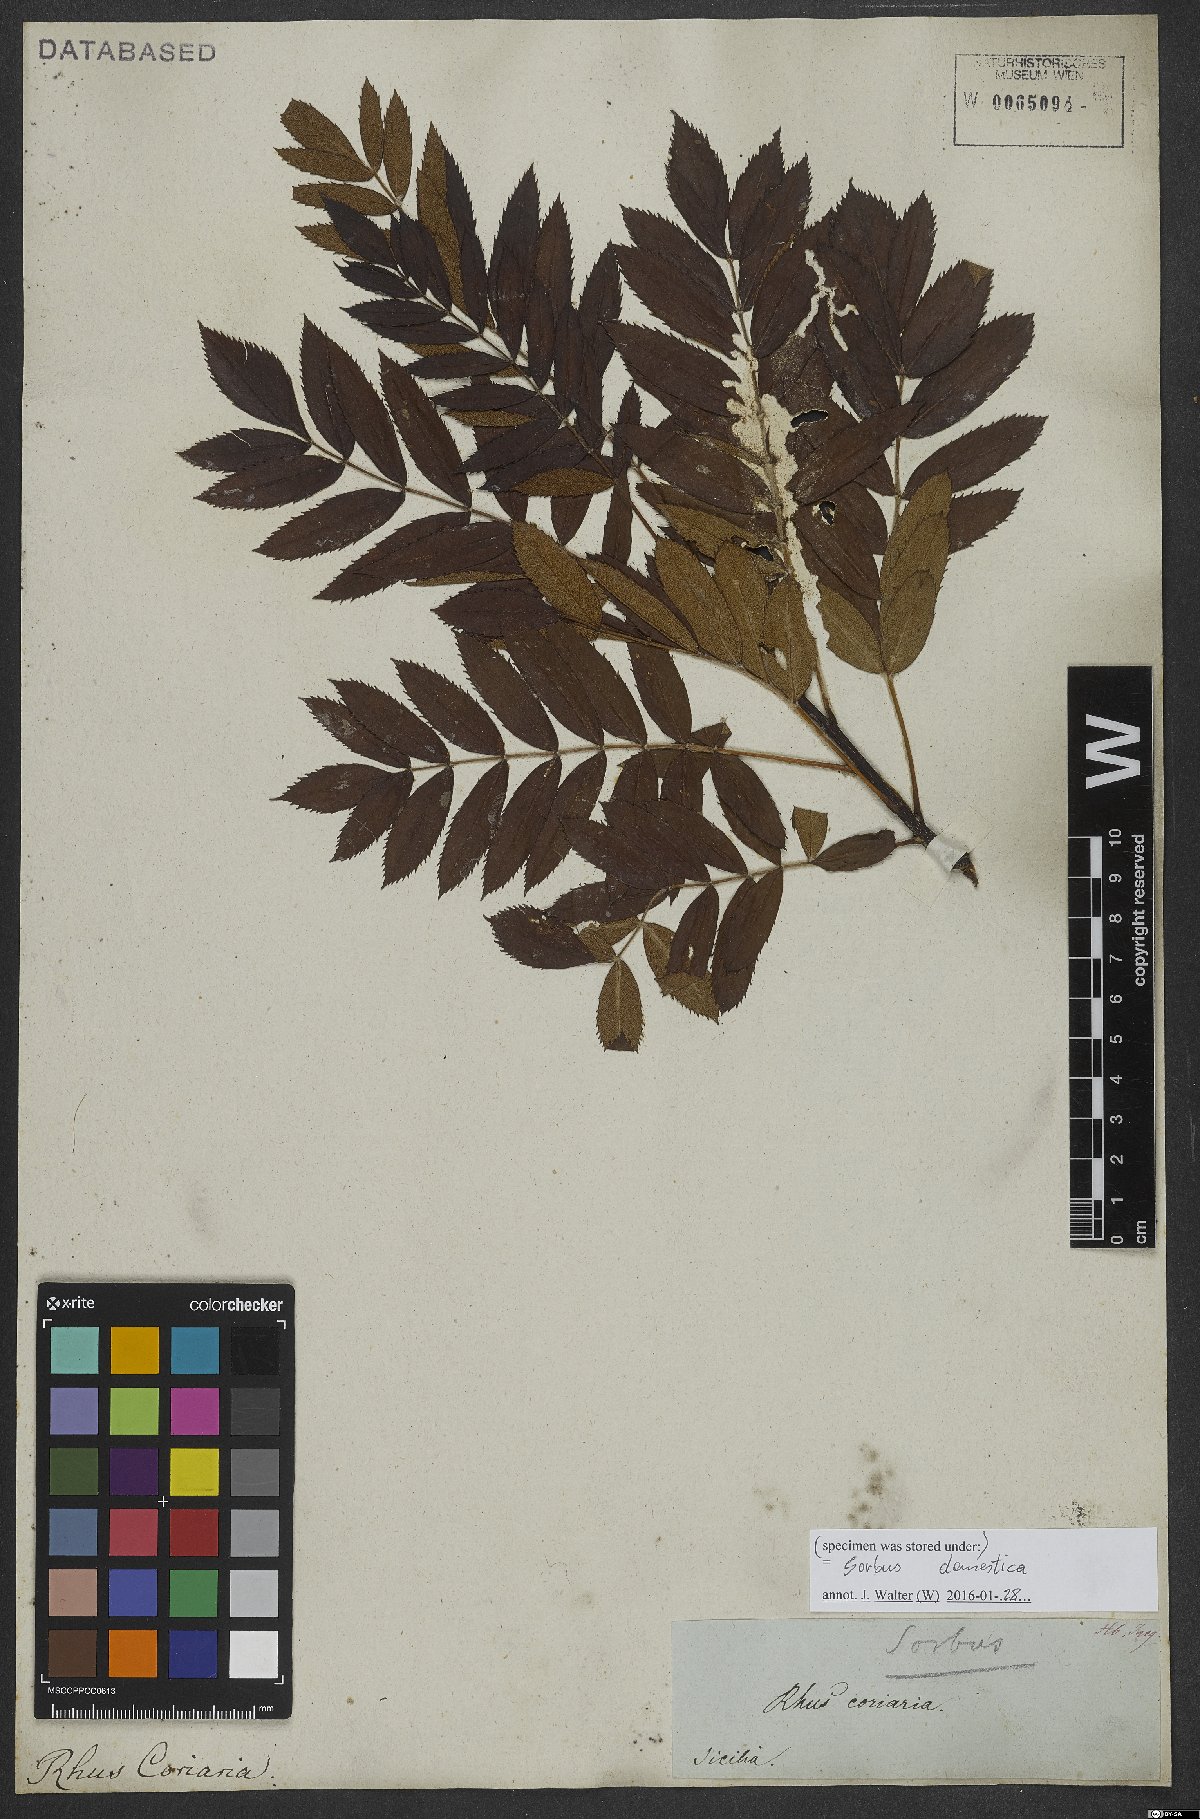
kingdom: Plantae
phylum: Tracheophyta
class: Magnoliopsida
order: Rosales
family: Rosaceae
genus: Cormus
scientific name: Cormus domestica
